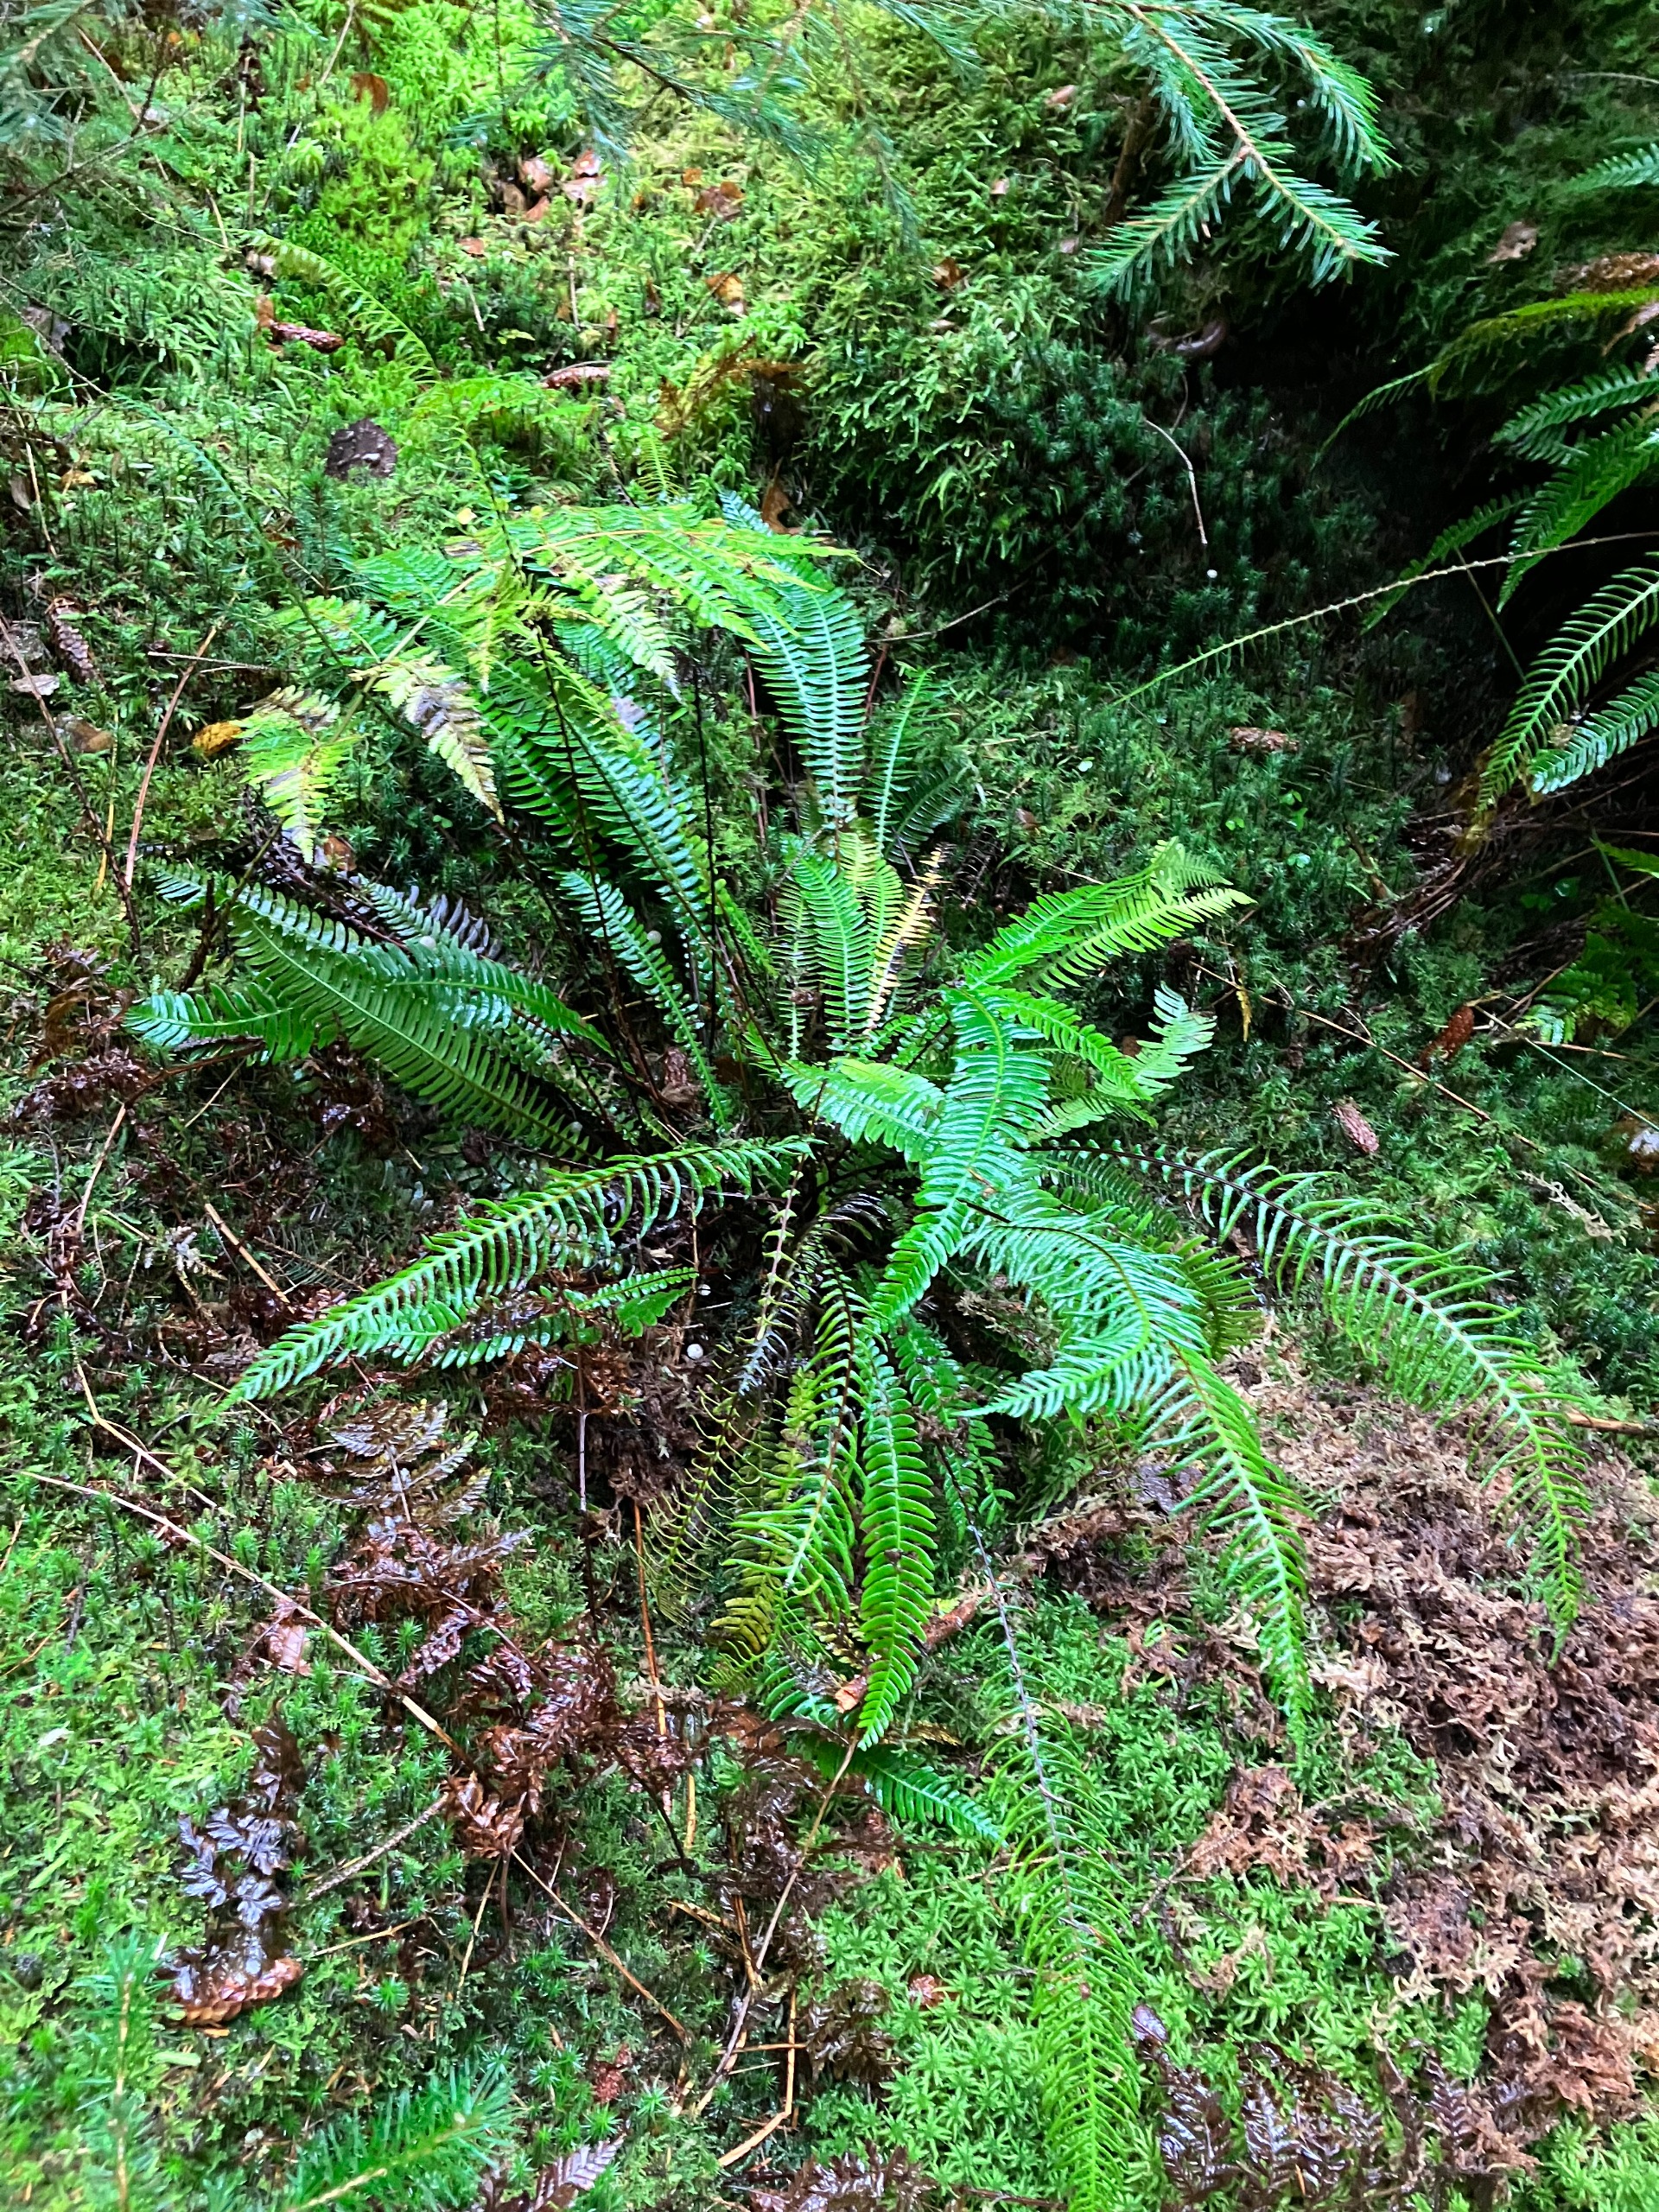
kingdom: Plantae
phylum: Tracheophyta
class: Polypodiopsida
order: Polypodiales
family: Blechnaceae
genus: Struthiopteris
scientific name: Struthiopteris spicant
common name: Kambregne
